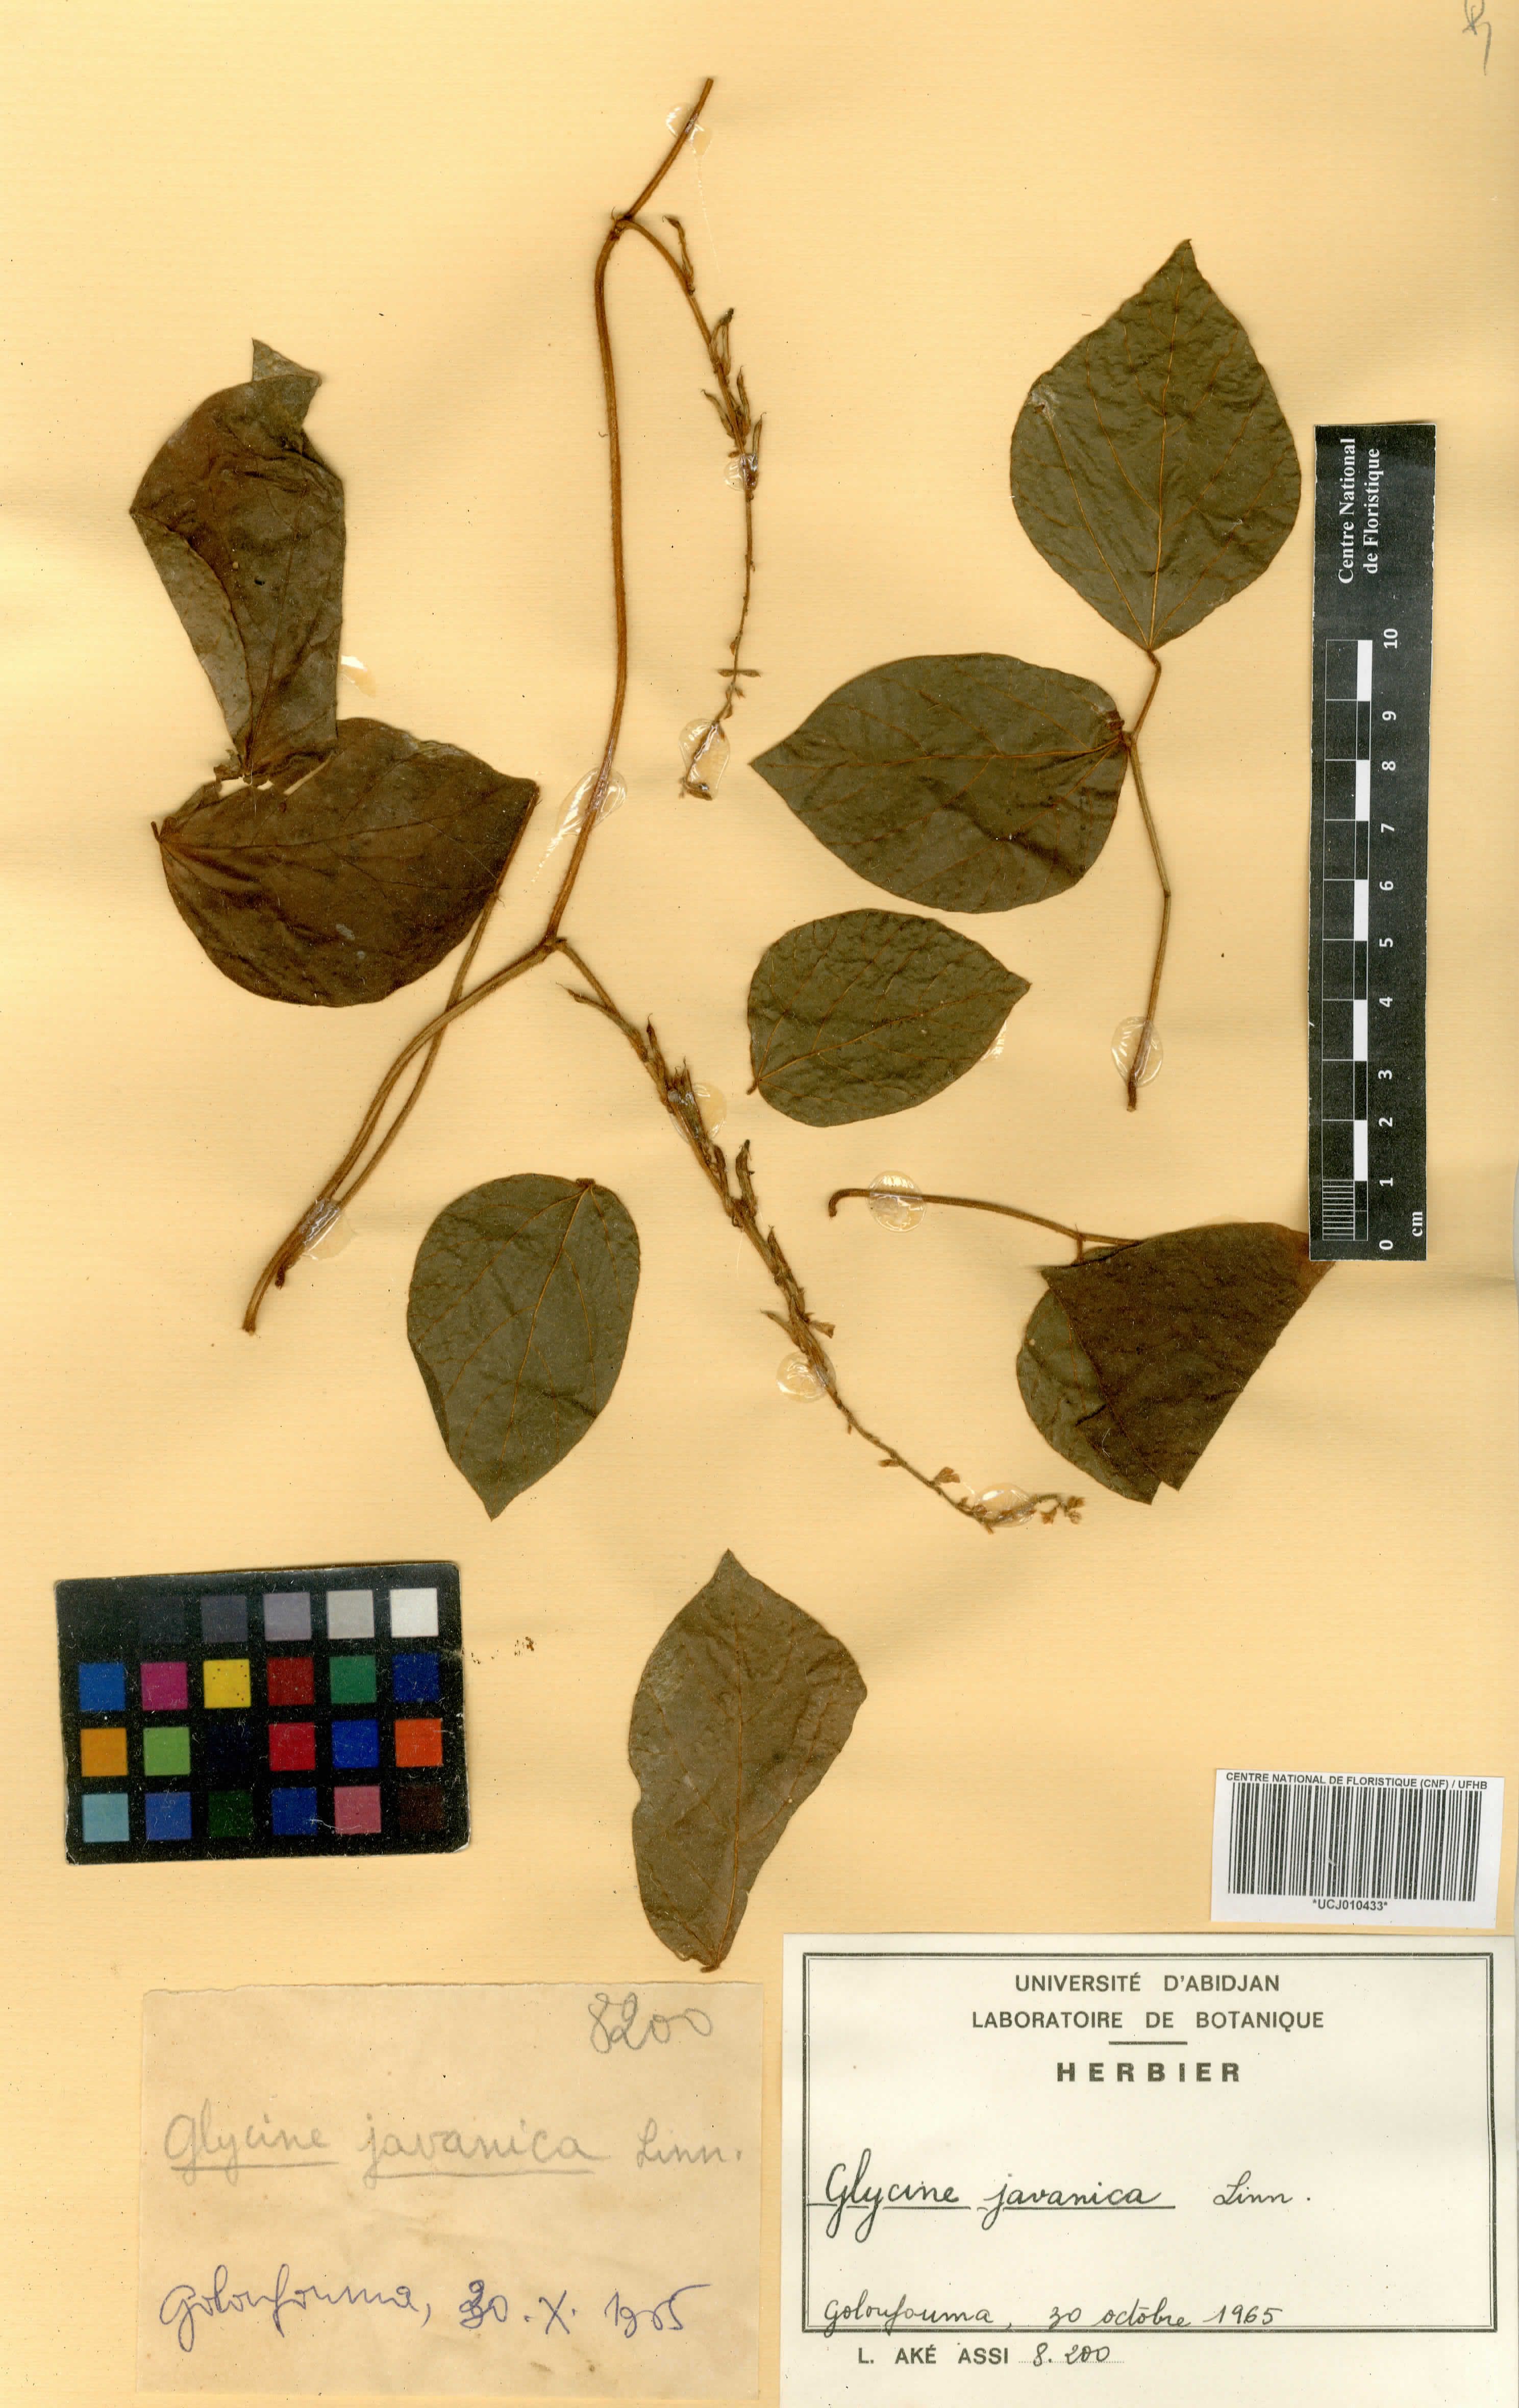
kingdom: Plantae
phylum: Tracheophyta
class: Magnoliopsida
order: Fabales
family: Fabaceae
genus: Pueraria
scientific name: Pueraria montana
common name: Kudzu
